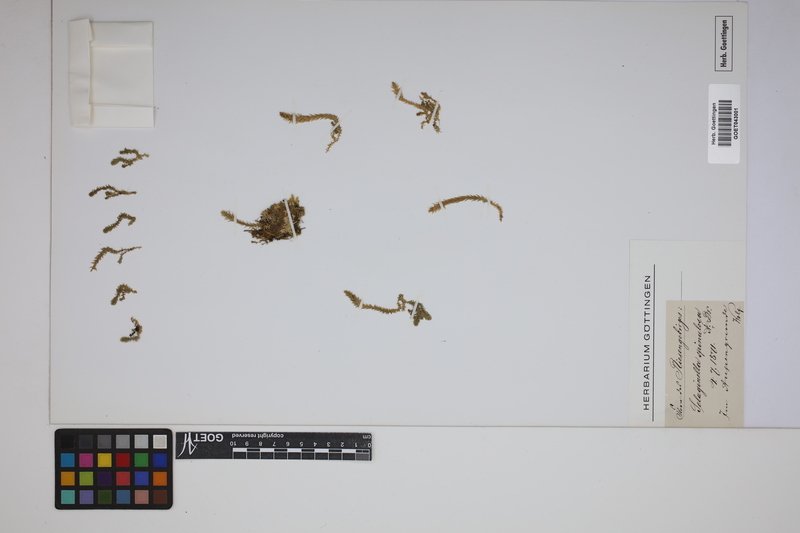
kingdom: Plantae
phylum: Tracheophyta
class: Lycopodiopsida
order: Selaginellales
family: Selaginellaceae
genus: Selaginella
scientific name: Selaginella selaginoides
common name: Prickly mountain-moss
